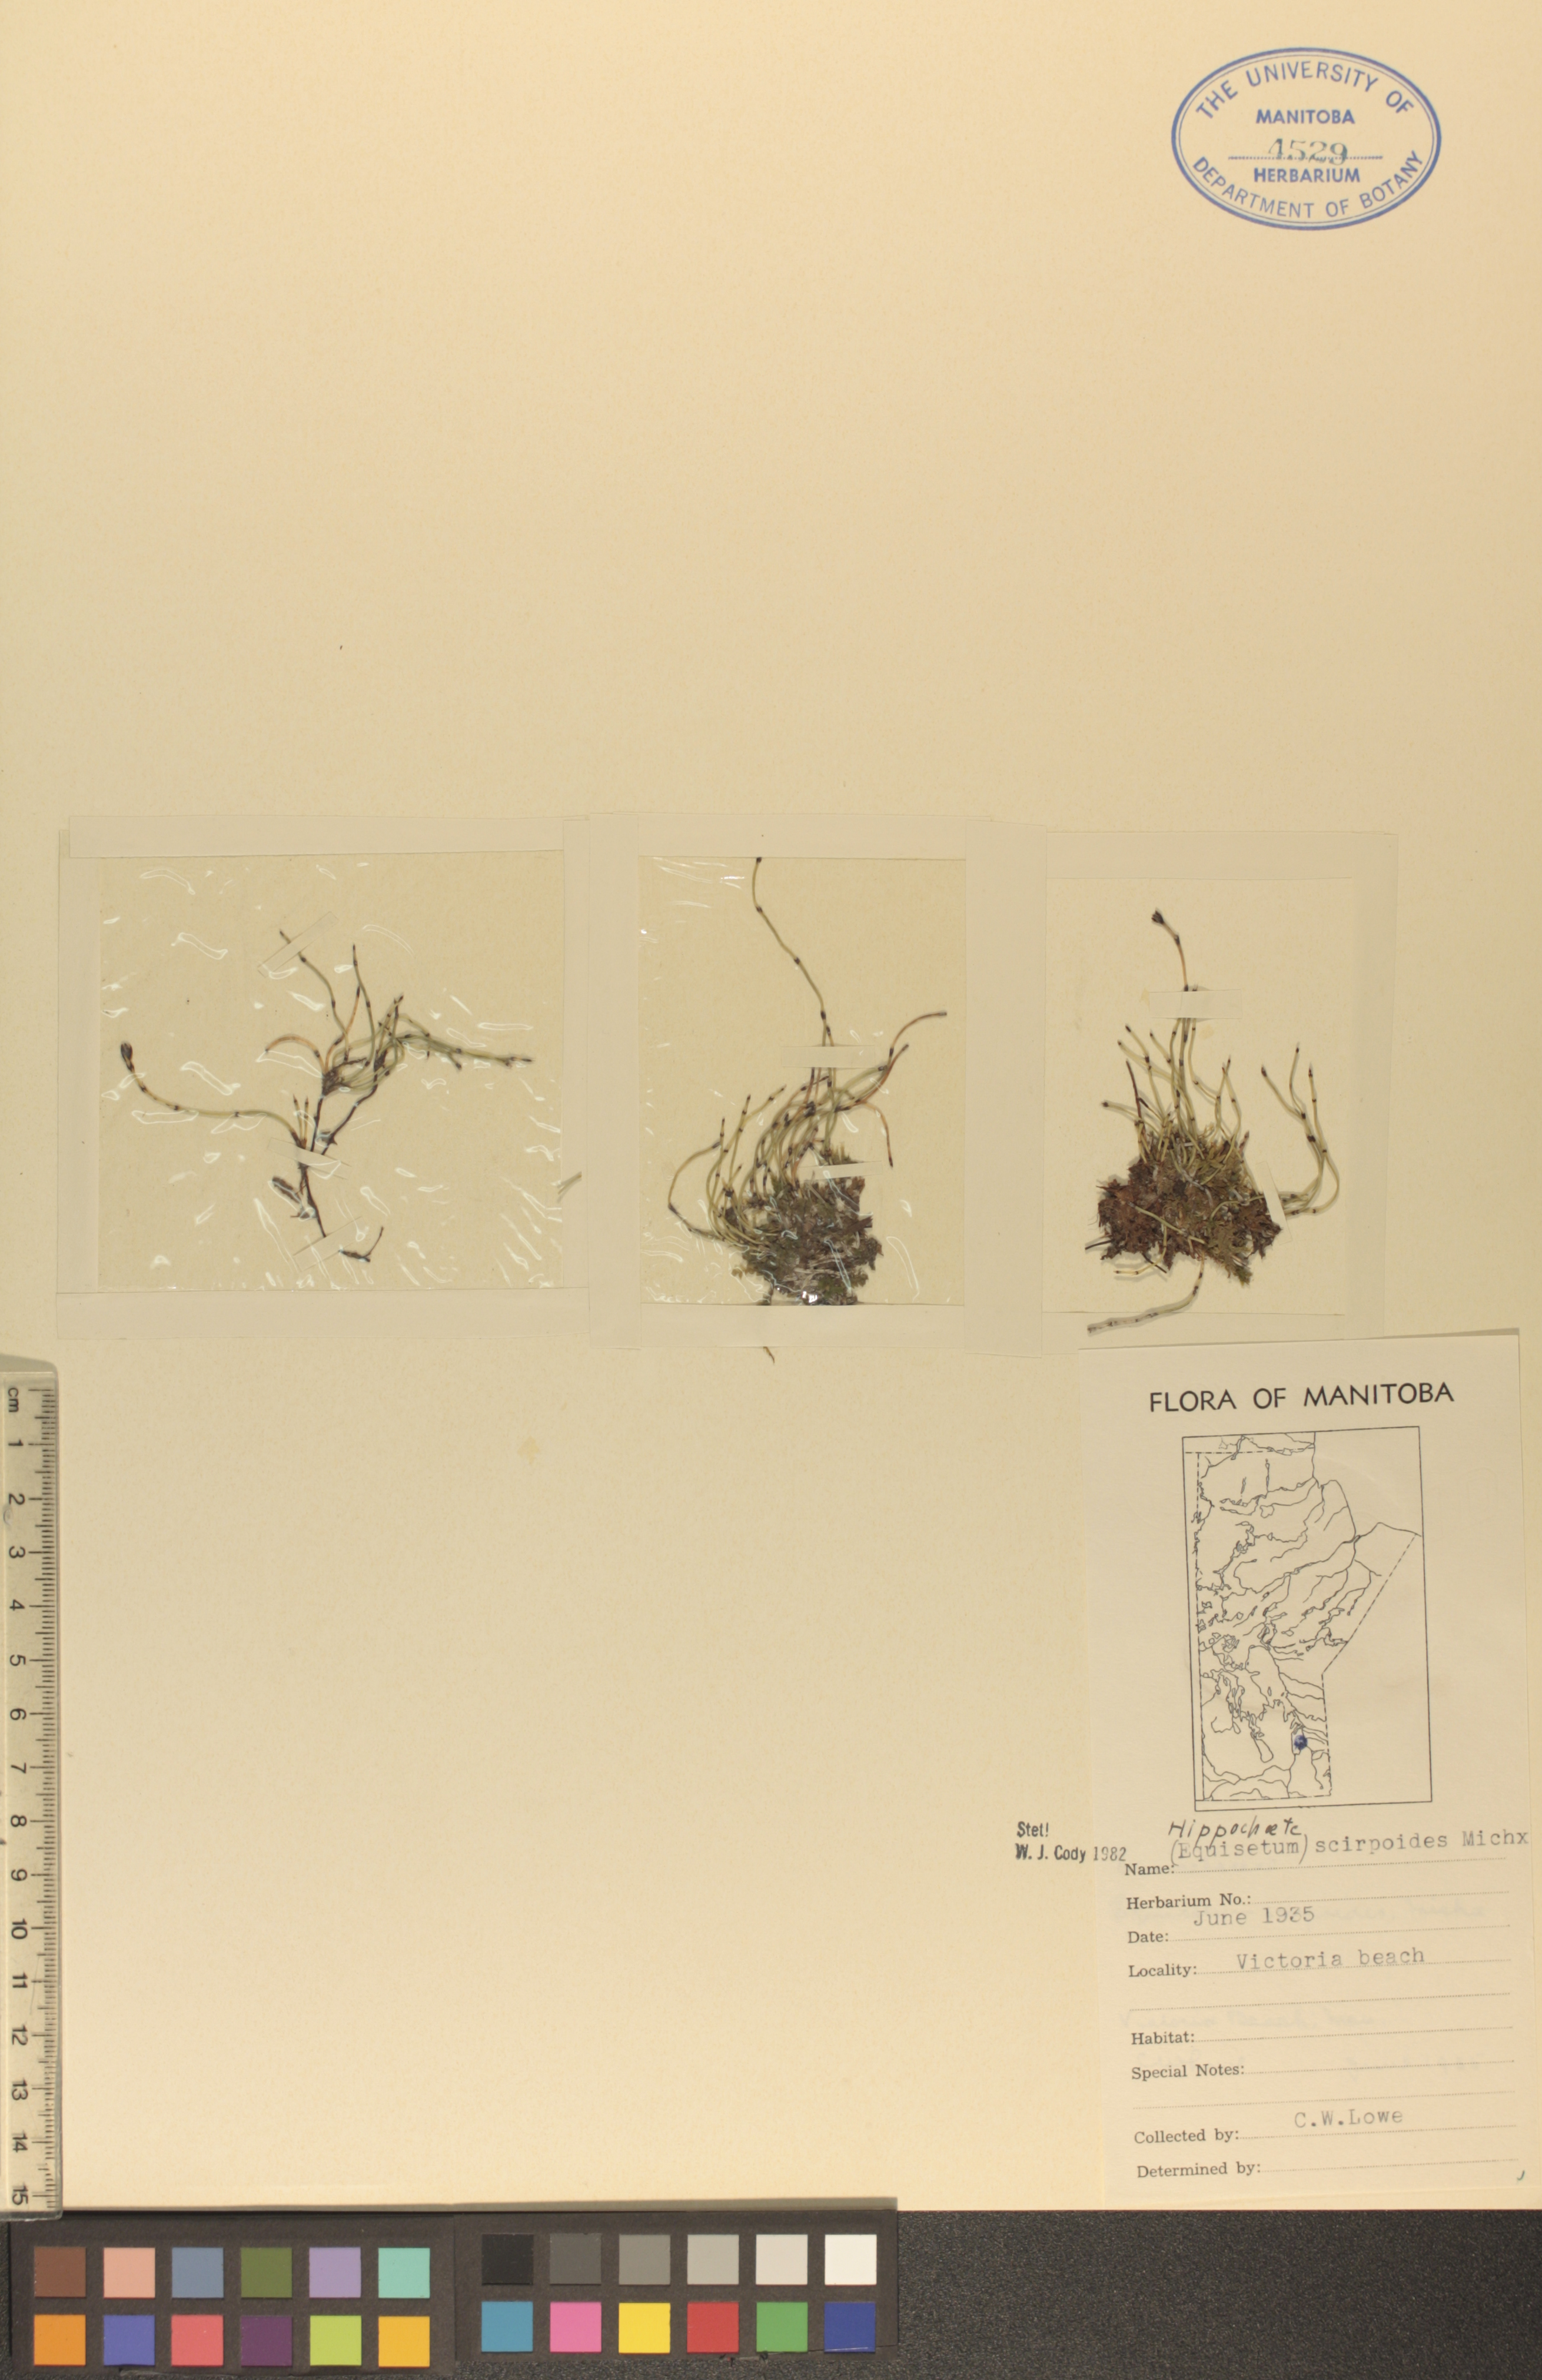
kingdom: Plantae
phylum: Tracheophyta
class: Polypodiopsida
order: Equisetales
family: Equisetaceae
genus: Equisetum
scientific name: Equisetum scirpoides
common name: Delicate horsetail
